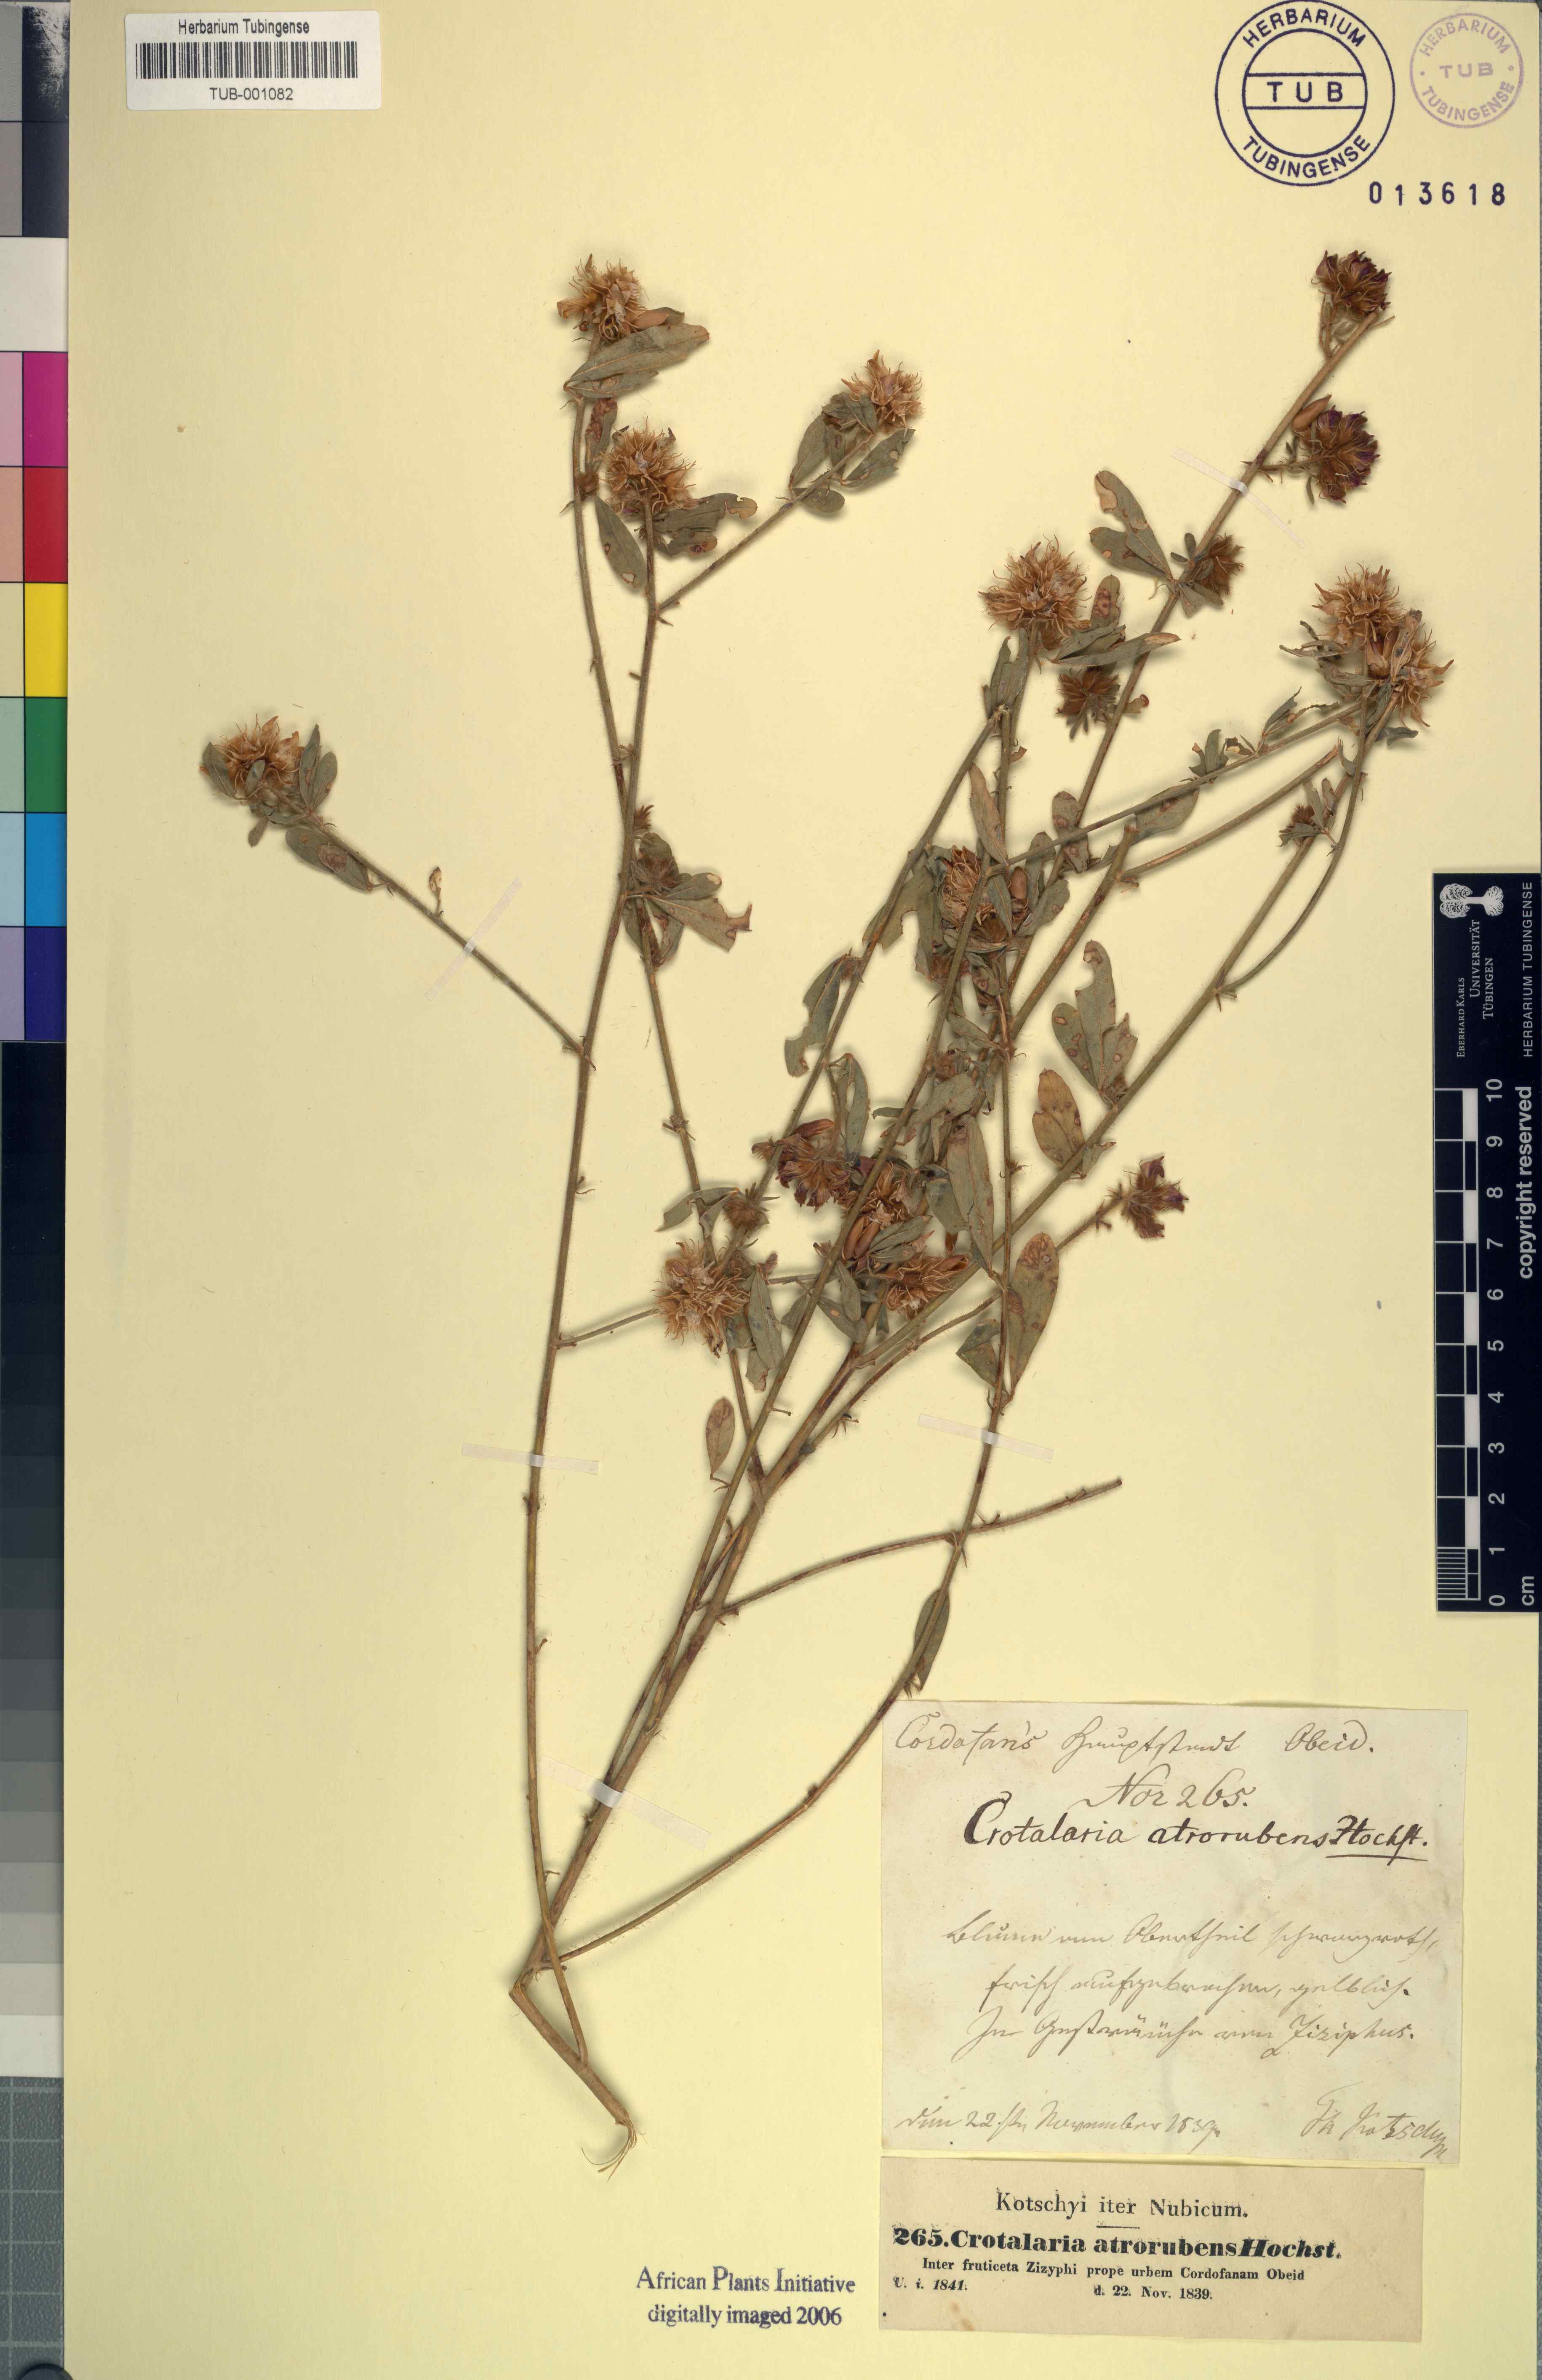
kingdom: Plantae
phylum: Tracheophyta
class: Magnoliopsida
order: Fabales
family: Fabaceae
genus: Crotalaria
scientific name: Crotalaria atrorubens
